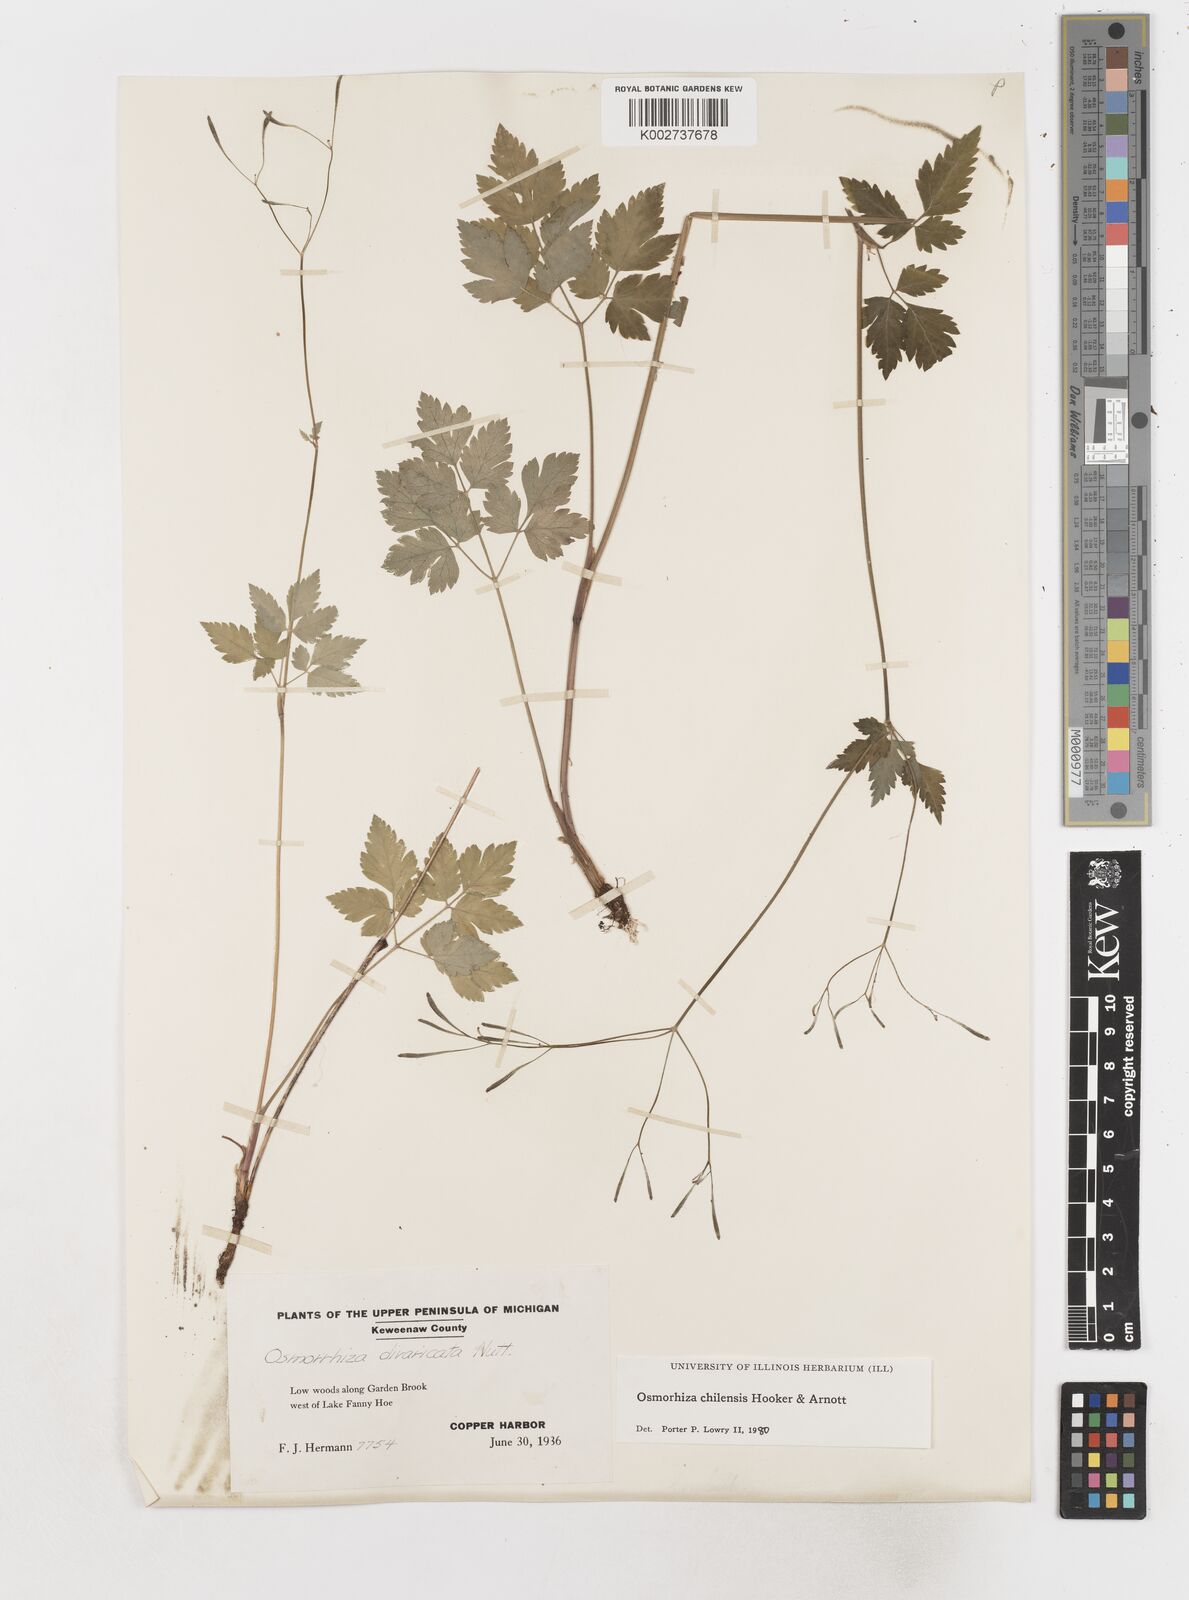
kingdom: Plantae
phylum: Tracheophyta
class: Magnoliopsida
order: Apiales
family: Apiaceae
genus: Osmorhiza
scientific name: Osmorhiza berteroi
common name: Mountain sweet cicely
